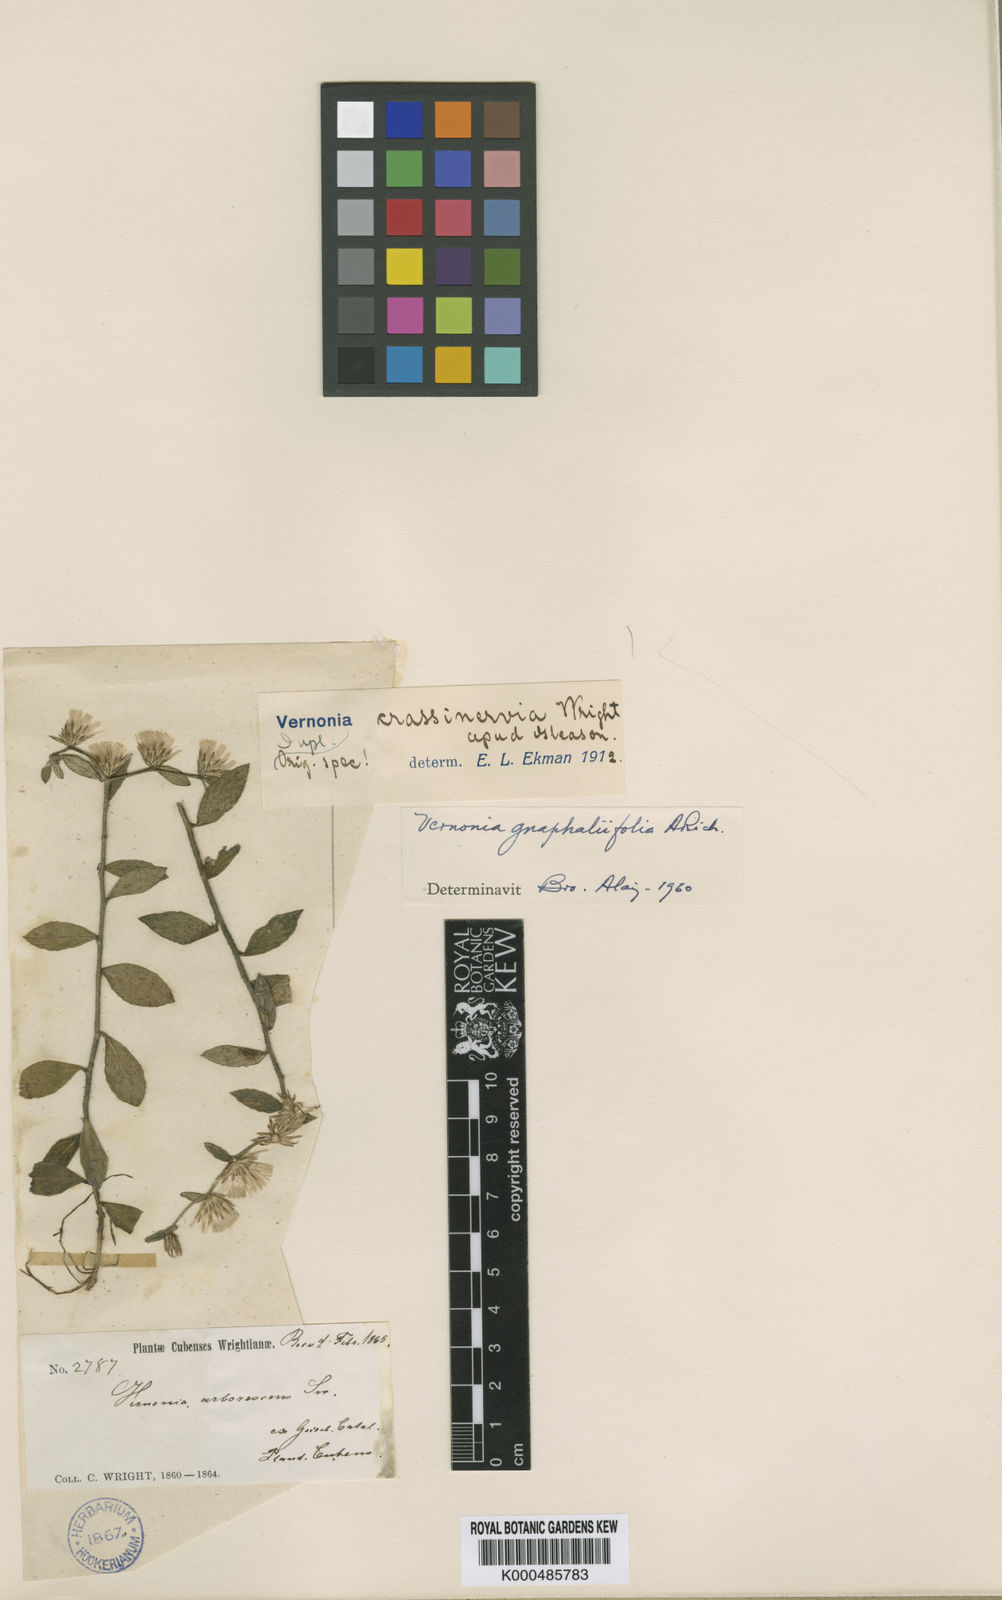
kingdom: Plantae
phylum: Tracheophyta
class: Magnoliopsida
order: Asterales
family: Asteraceae
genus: Vernonia
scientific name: Vernonia
